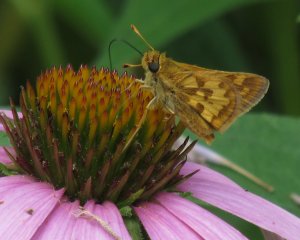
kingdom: Animalia
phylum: Arthropoda
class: Insecta
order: Lepidoptera
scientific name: Lepidoptera
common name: Butterflies
